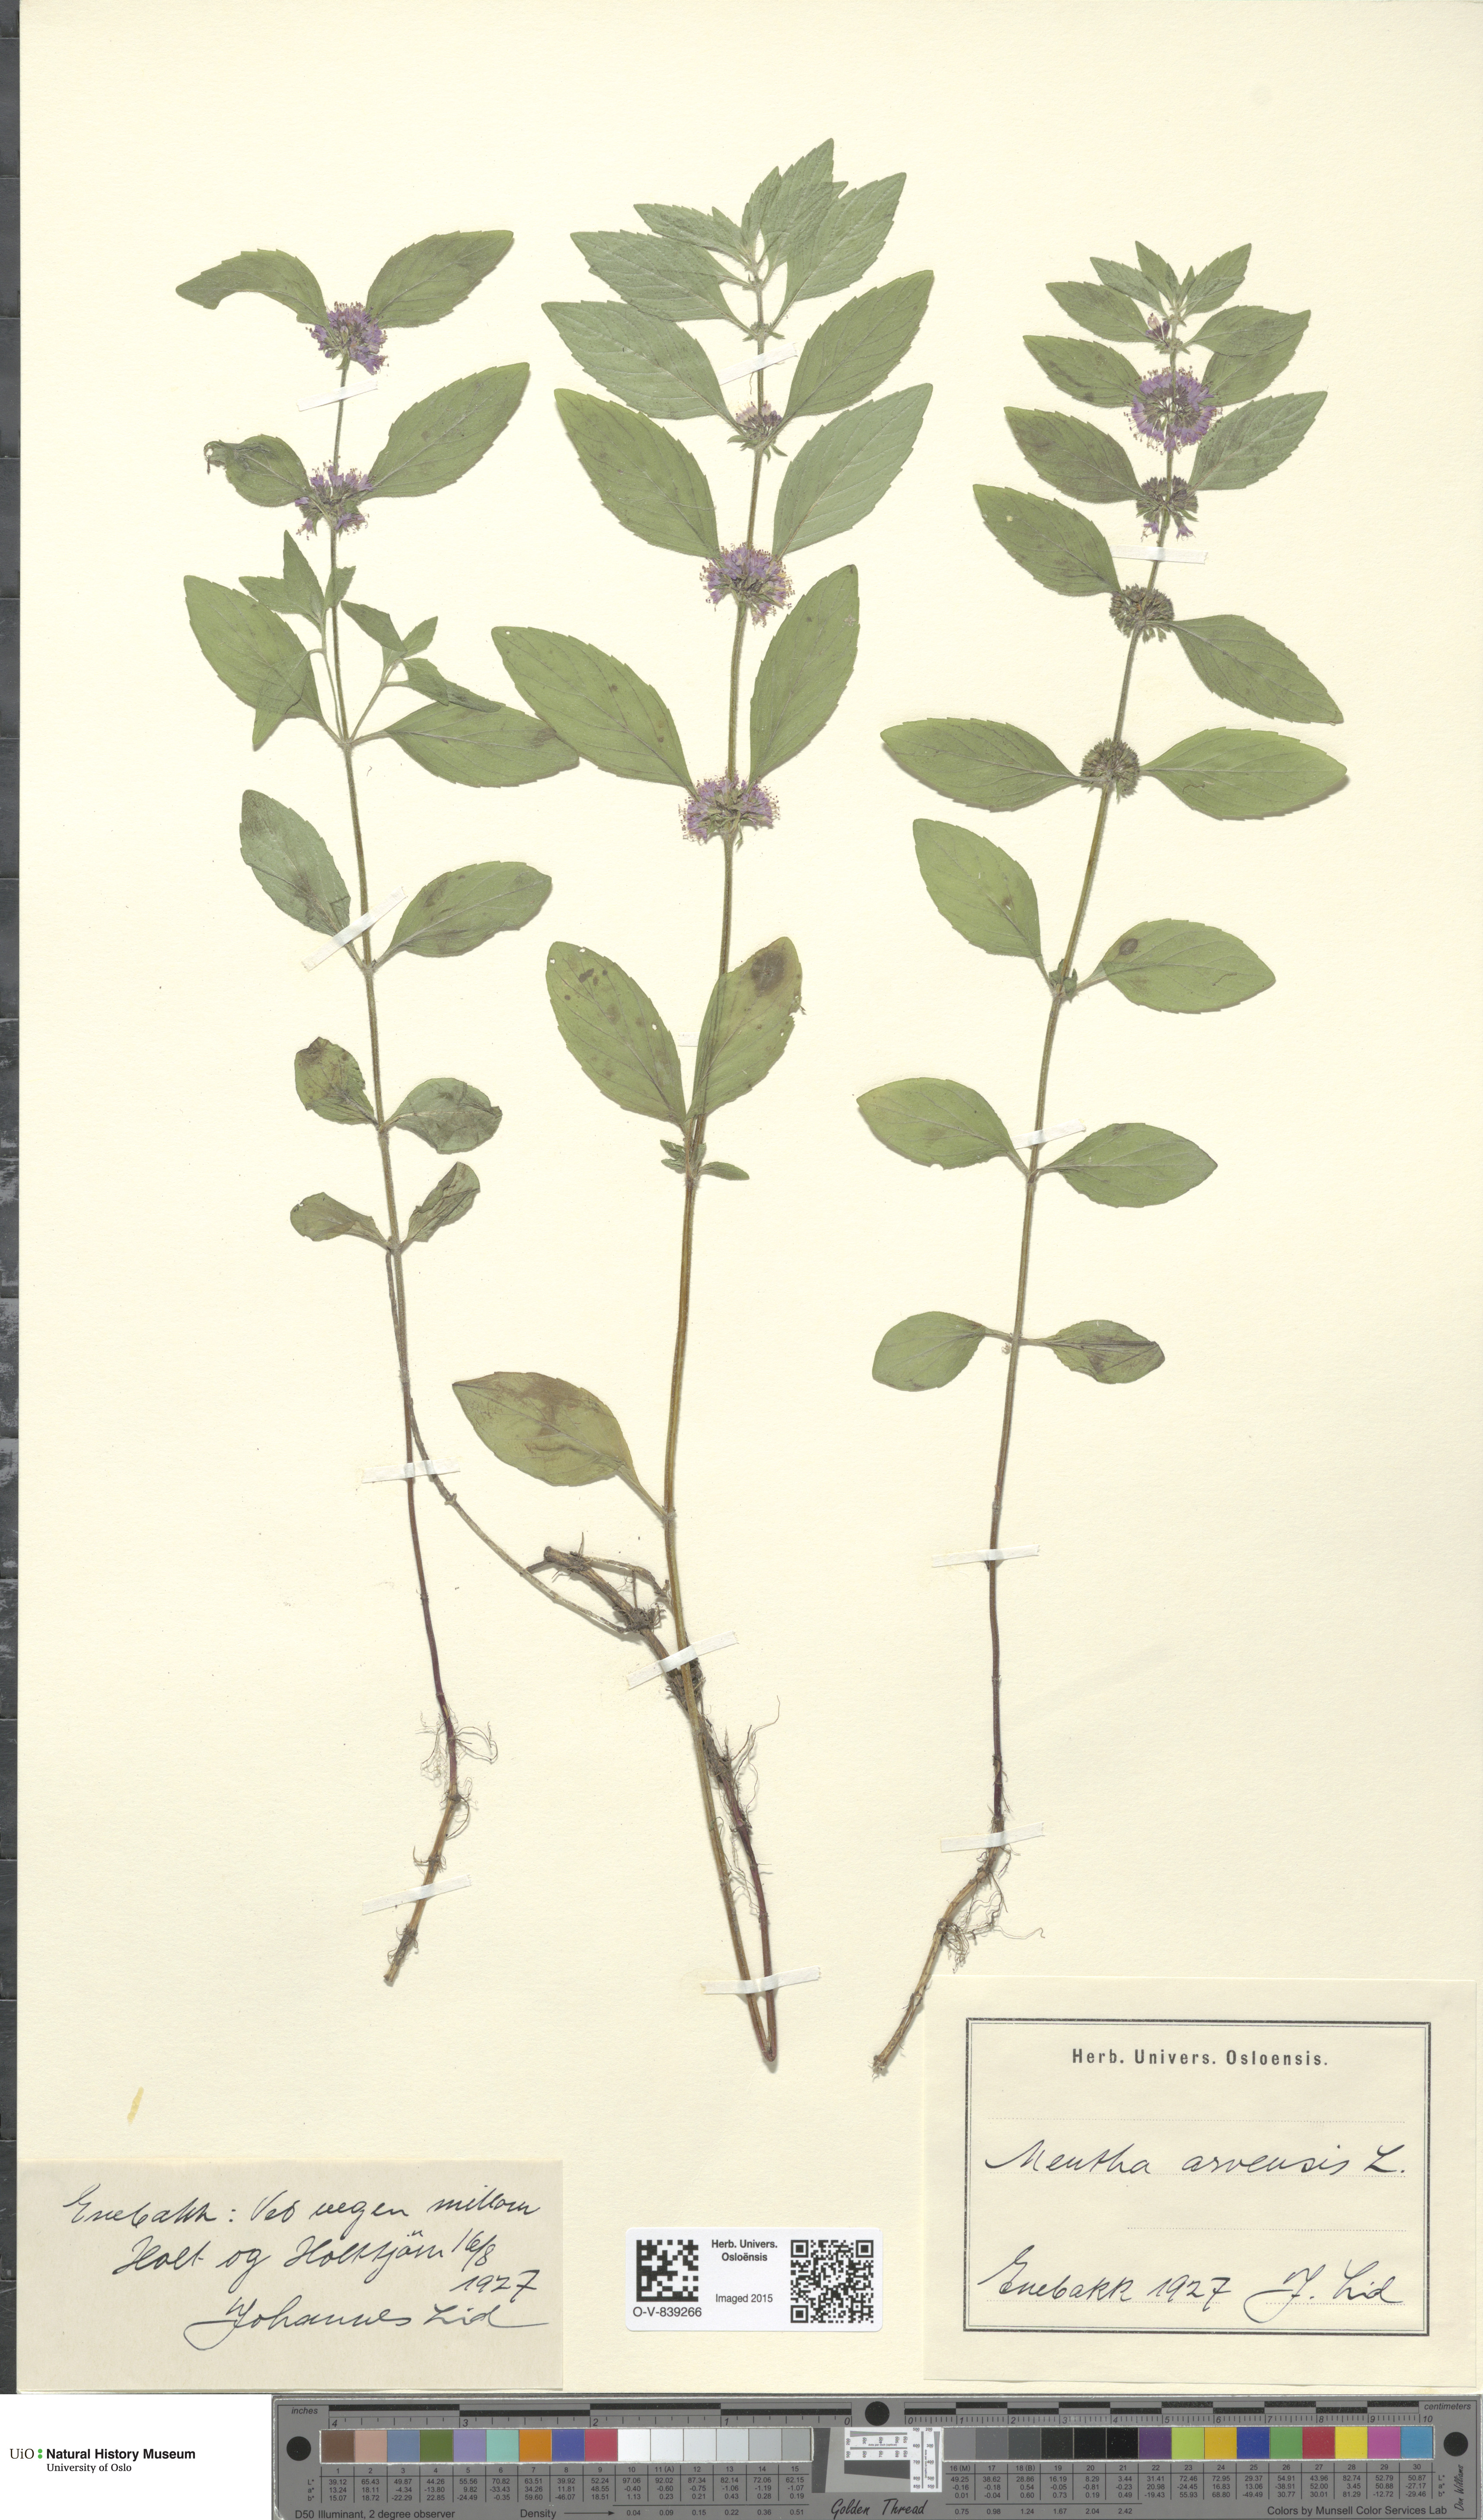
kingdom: Plantae
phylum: Tracheophyta
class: Magnoliopsida
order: Lamiales
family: Lamiaceae
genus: Mentha
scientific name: Mentha arvensis
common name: Corn mint
